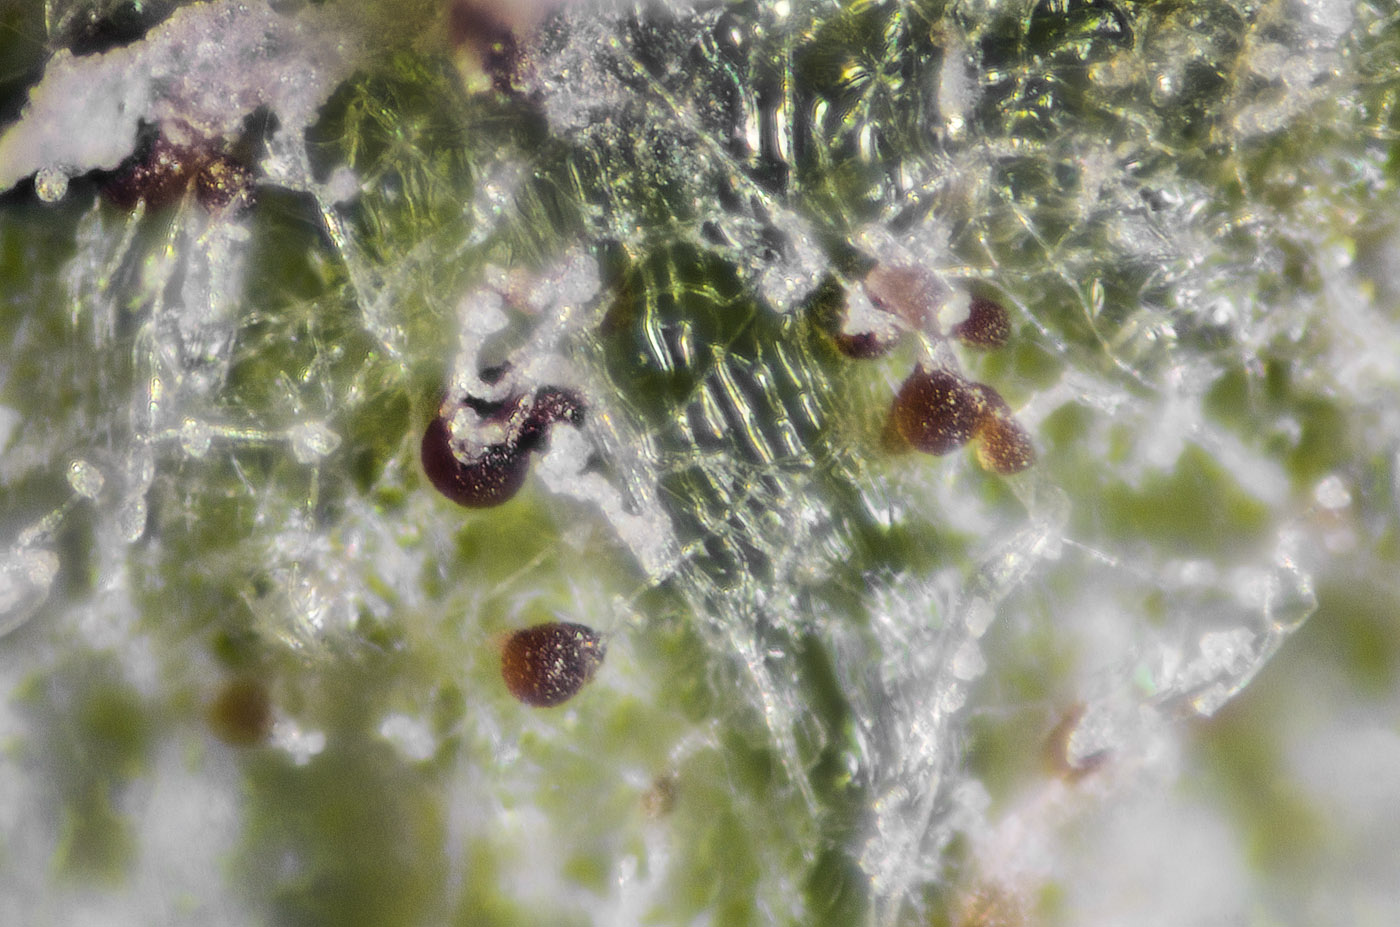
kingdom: Fungi
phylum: Ascomycota
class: Leotiomycetes
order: Helotiales
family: Erysiphaceae
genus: Podosphaera
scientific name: Podosphaera leucotricha
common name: æble-meldug
